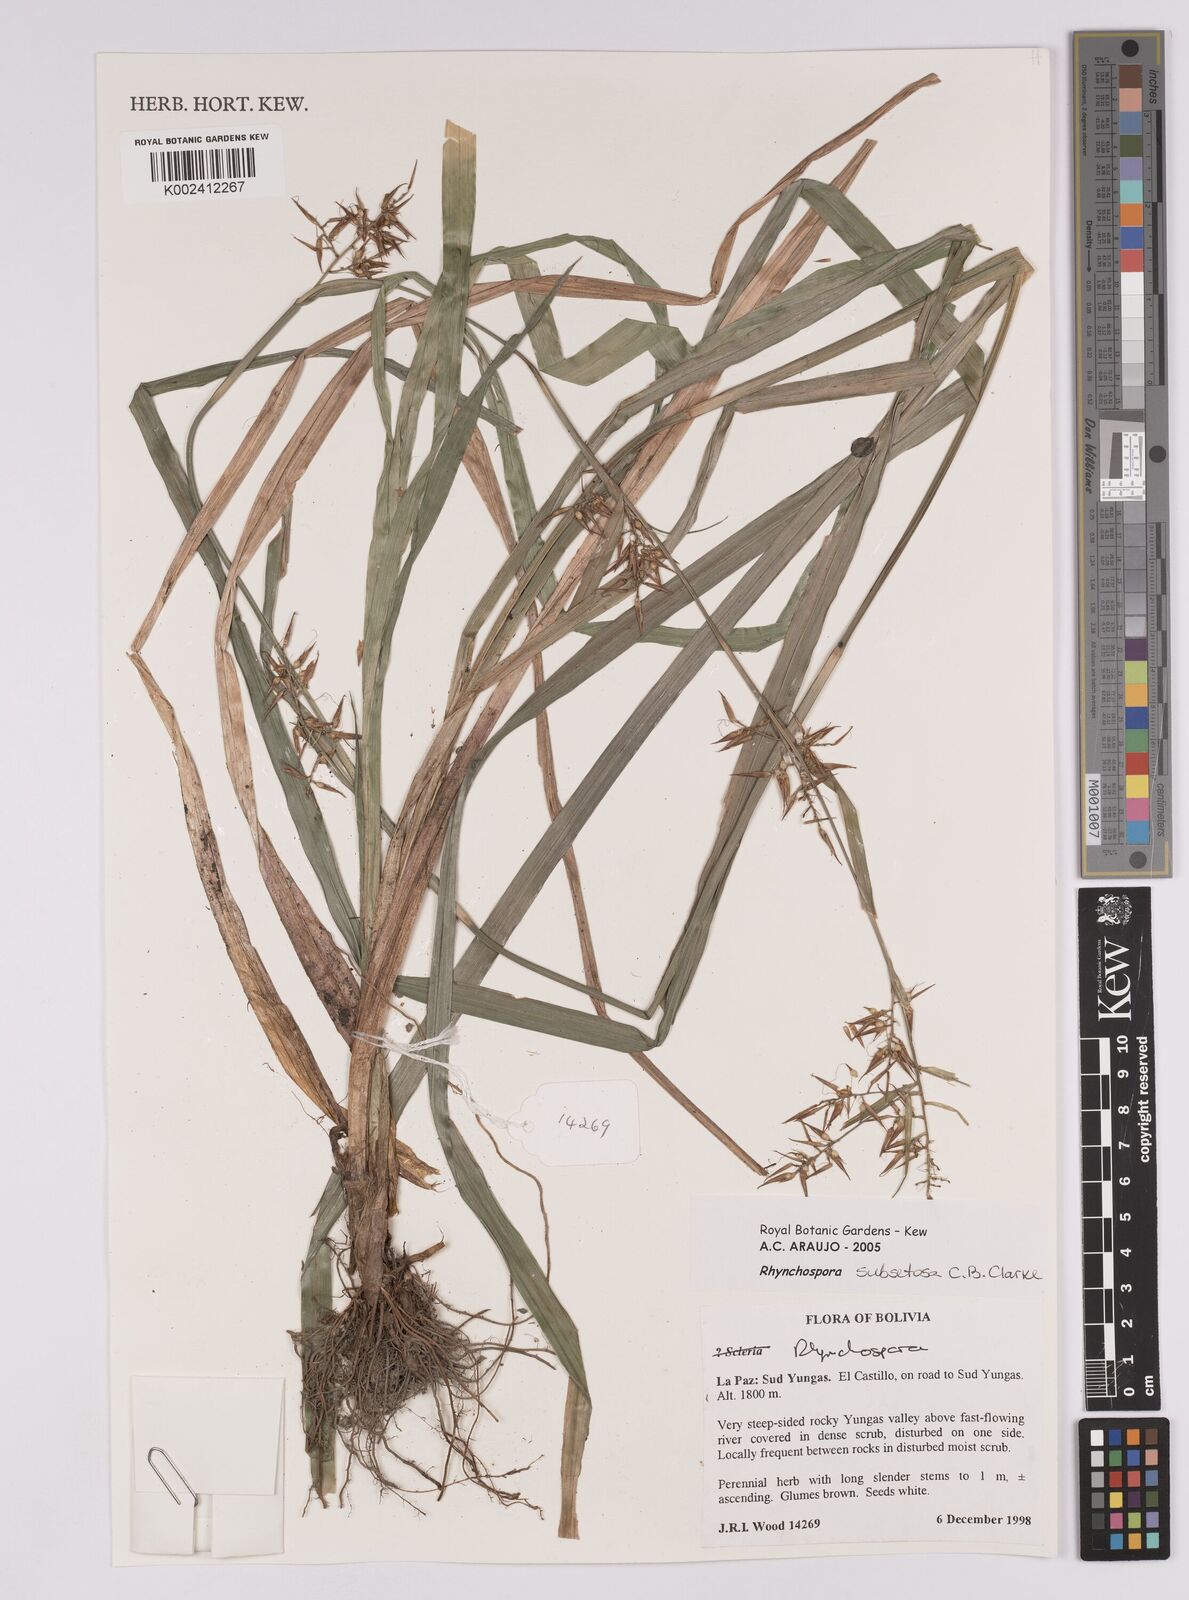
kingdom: Plantae
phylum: Tracheophyta
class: Liliopsida
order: Poales
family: Cyperaceae
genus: Rhynchospora
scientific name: Rhynchospora subsetosa
